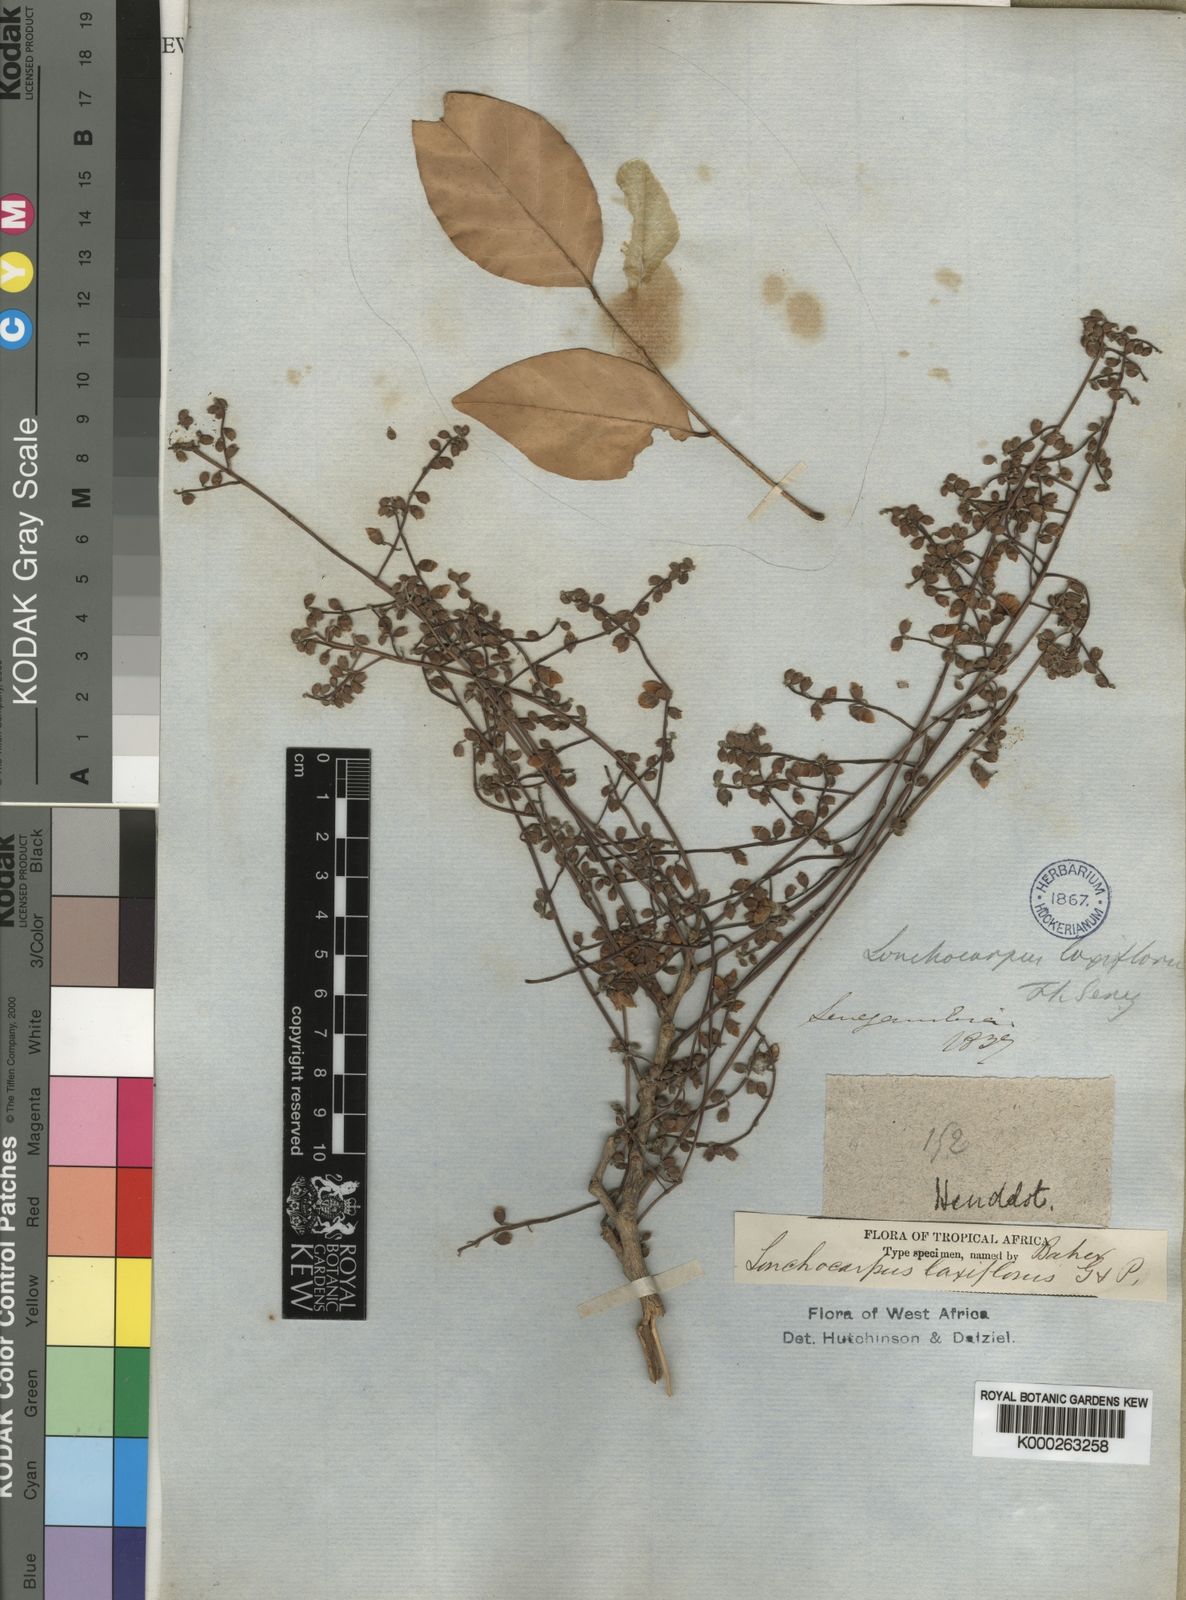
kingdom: Plantae
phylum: Tracheophyta
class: Magnoliopsida
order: Fabales
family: Fabaceae
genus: Philenoptera
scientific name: Philenoptera laxiflora
